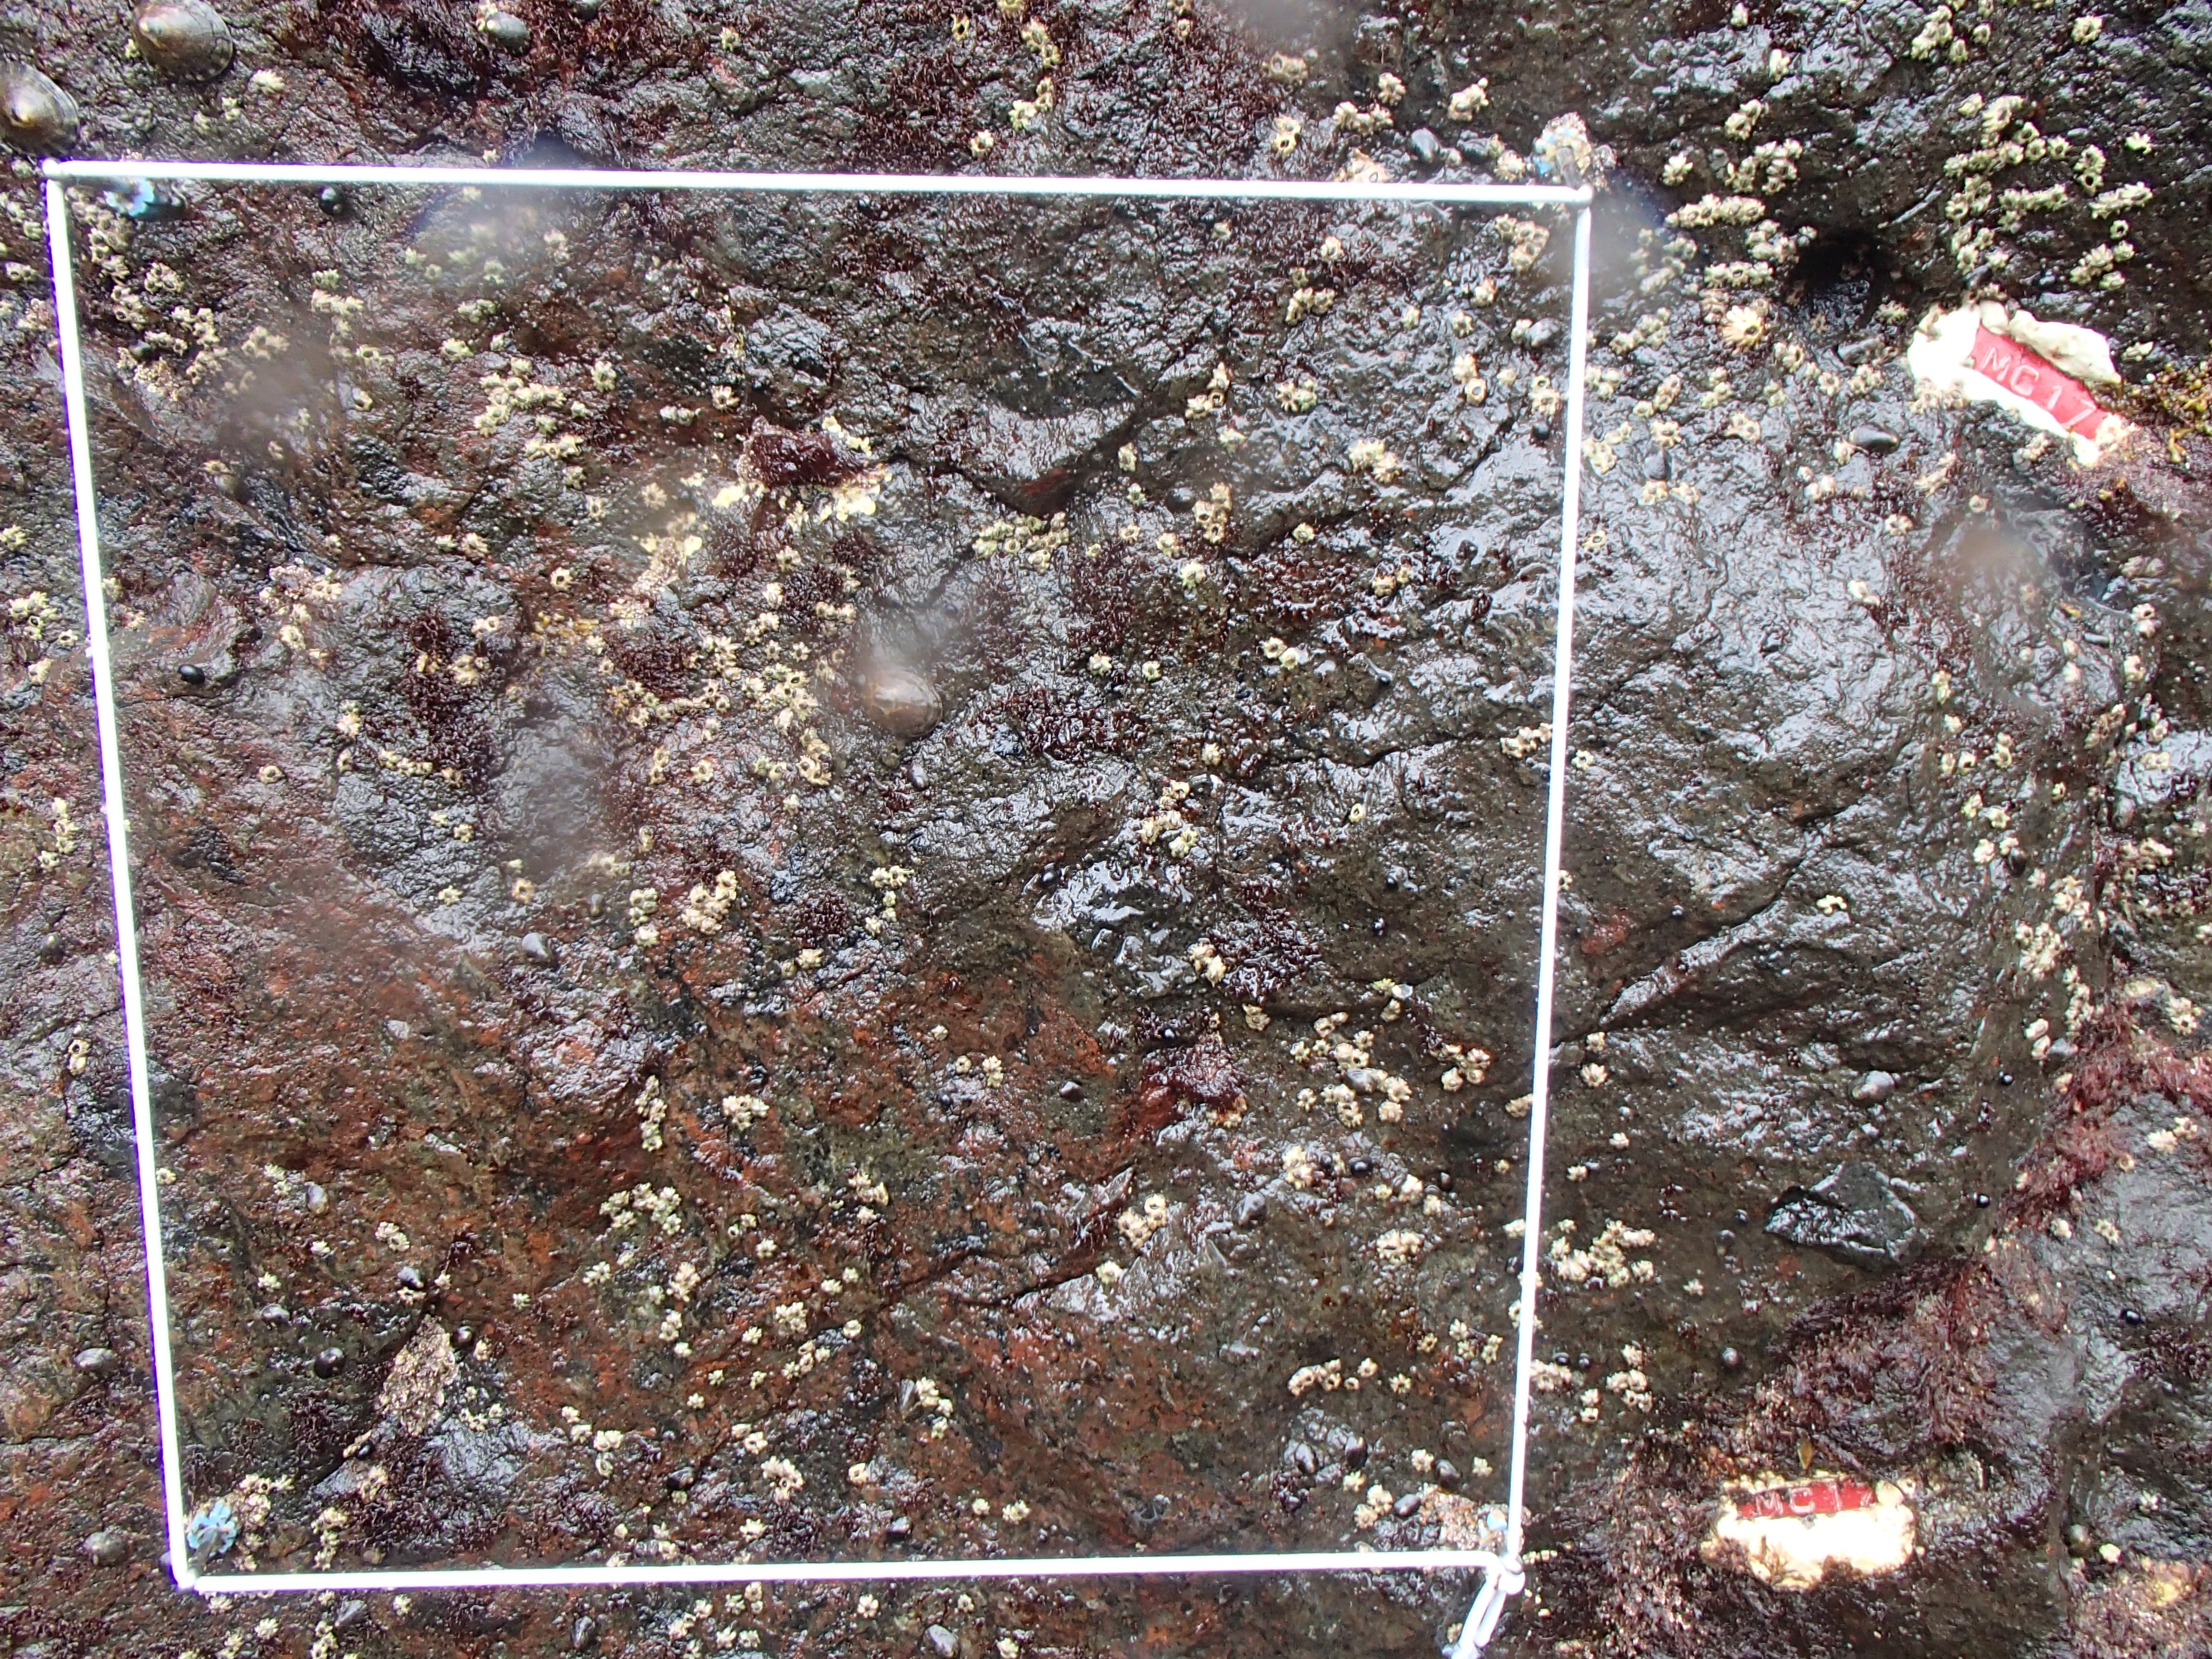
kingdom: Plantae
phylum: Rhodophyta
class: Florideophyceae
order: Corallinales
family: Corallinaceae
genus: Corallina
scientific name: Corallina pilulifera
